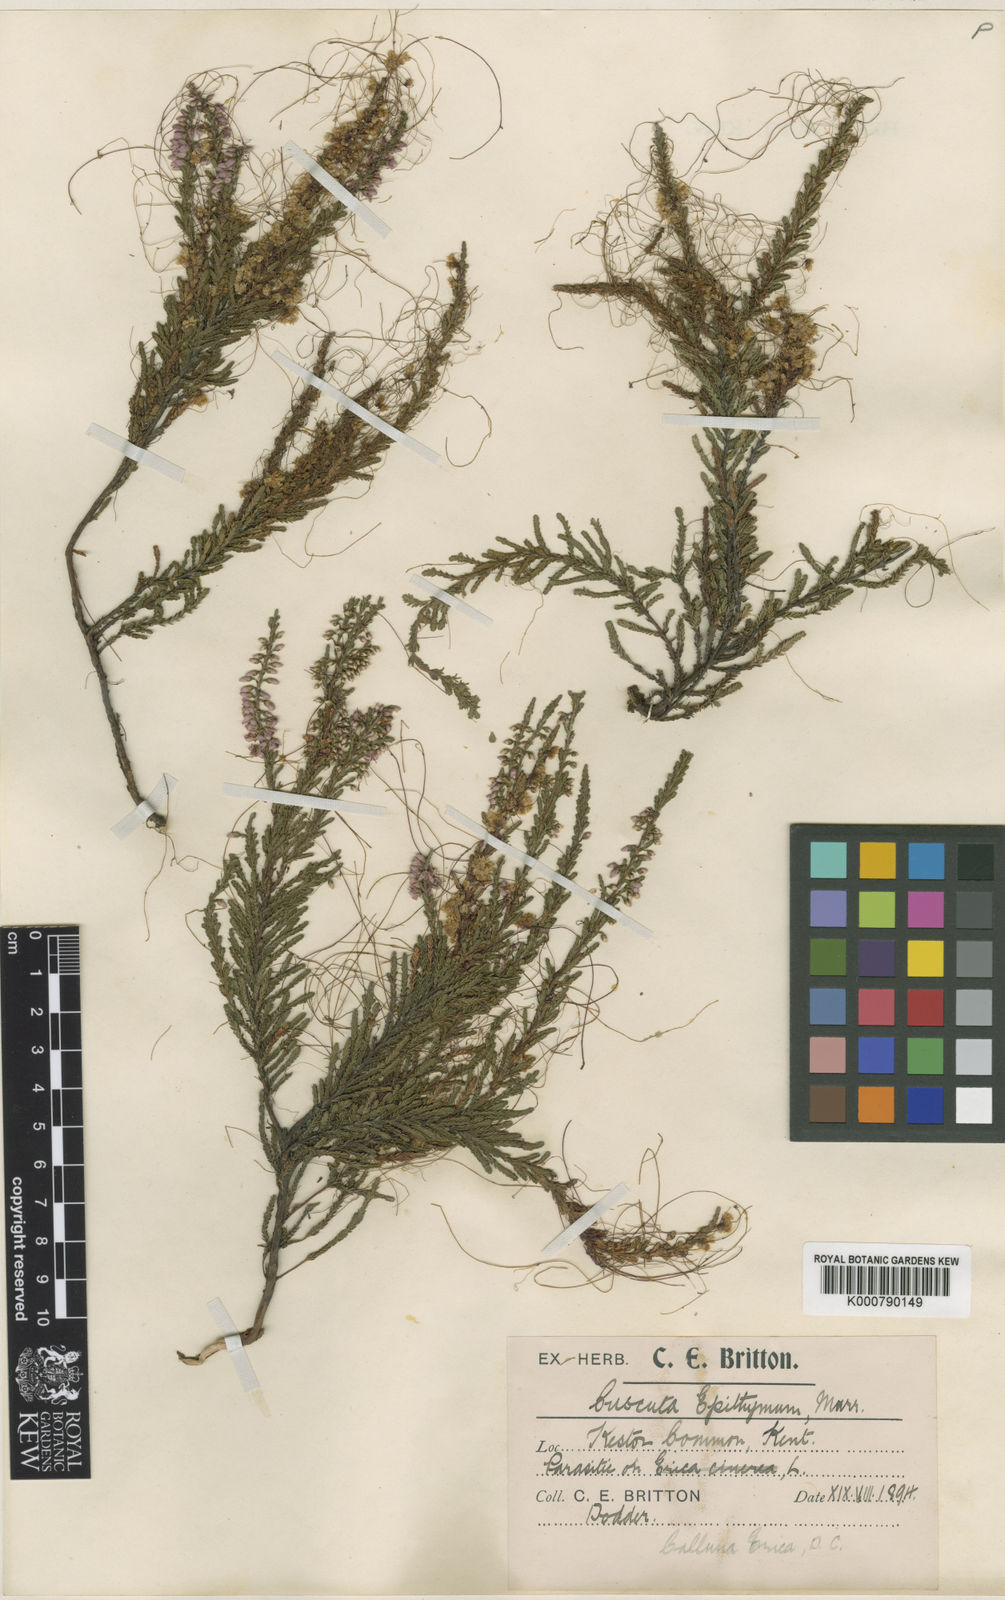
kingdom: Plantae
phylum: Tracheophyta
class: Magnoliopsida
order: Solanales
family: Convolvulaceae
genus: Cuscuta
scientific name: Cuscuta epithymum
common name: Clover dodder
